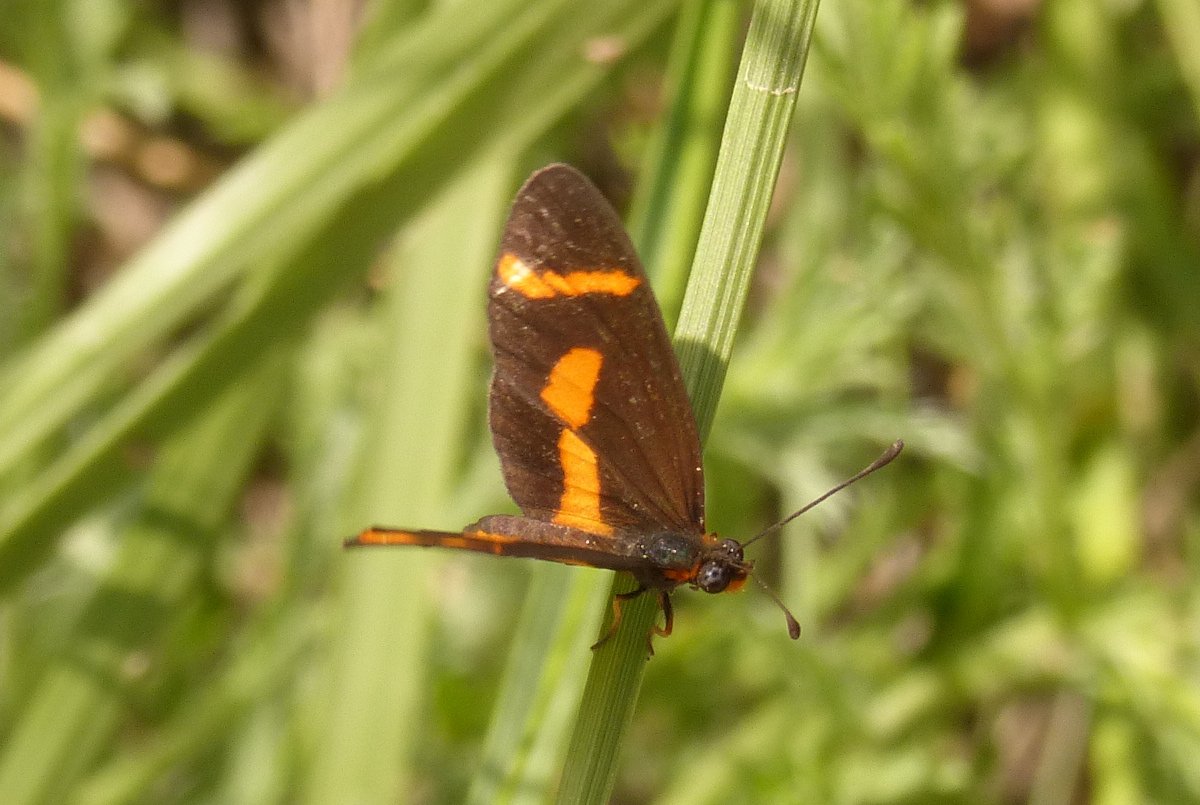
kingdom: Animalia
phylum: Arthropoda
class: Insecta
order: Lepidoptera
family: Nymphalidae
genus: Microtia
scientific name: Microtia elva
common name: Elf
